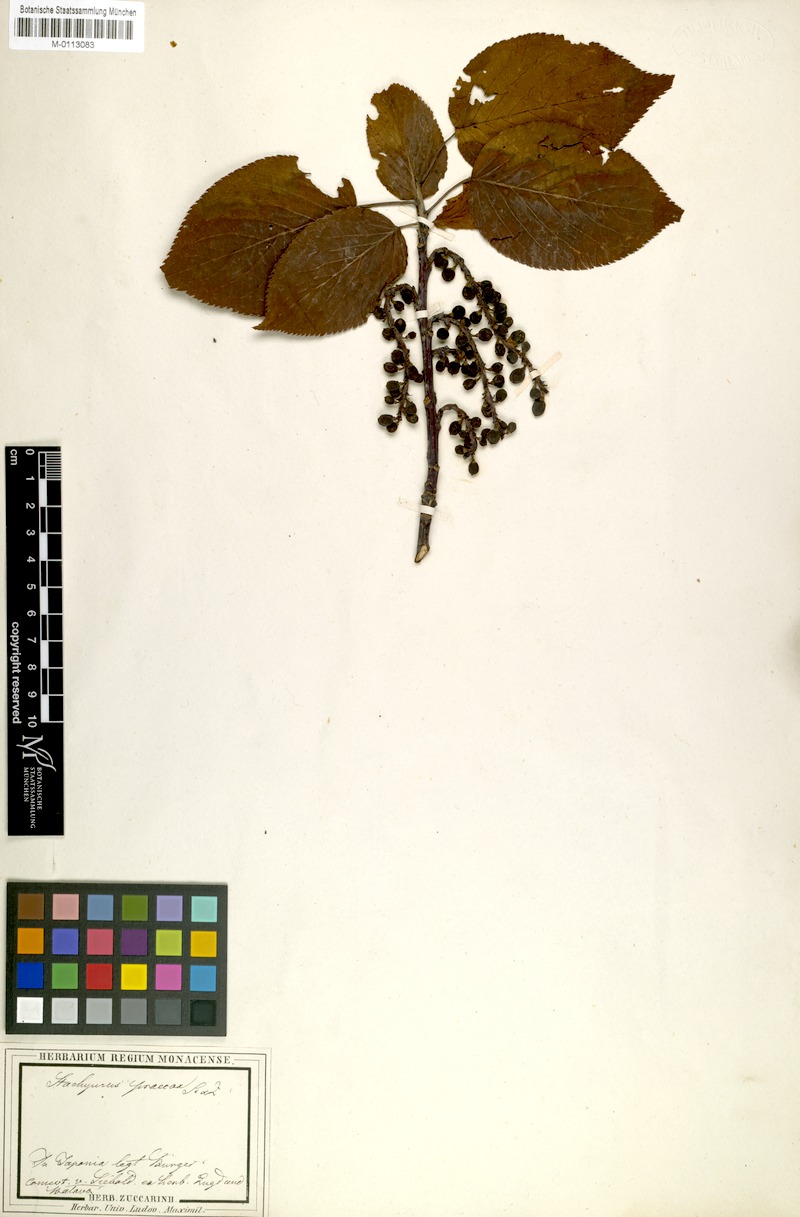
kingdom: Plantae
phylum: Tracheophyta
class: Magnoliopsida
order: Crossosomatales
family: Stachyuraceae
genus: Stachyurus
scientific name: Stachyurus praecox
